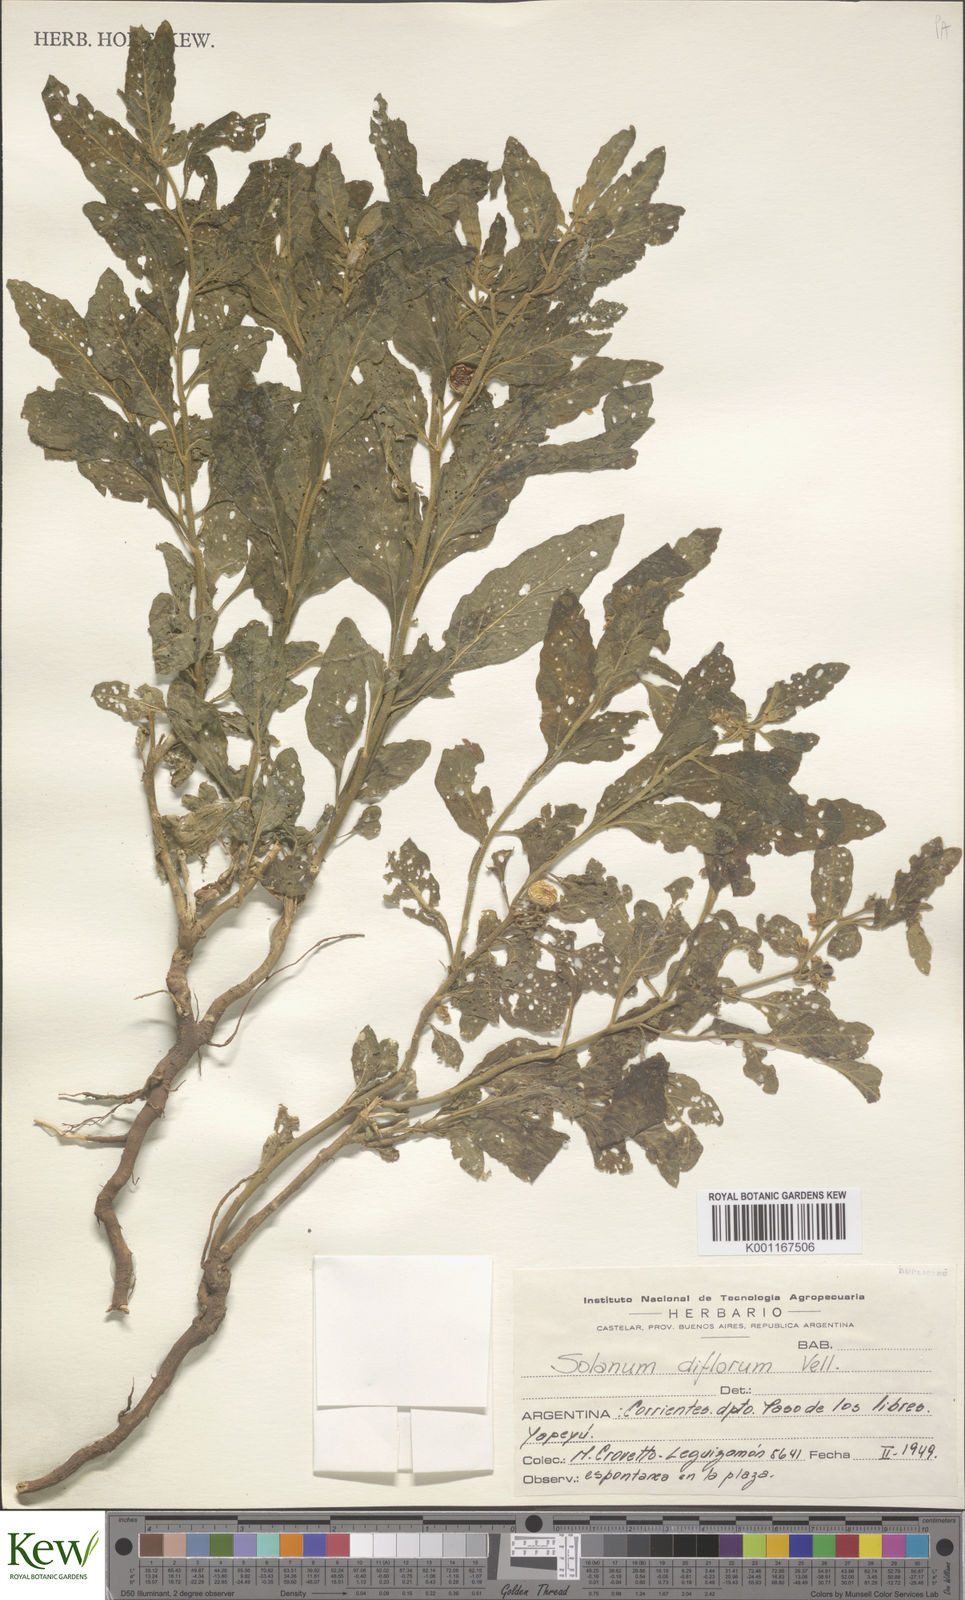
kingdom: Plantae
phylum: Tracheophyta
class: Magnoliopsida
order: Solanales
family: Solanaceae
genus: Solanum
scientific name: Solanum pseudocapsicum
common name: Jerusalem cherry
